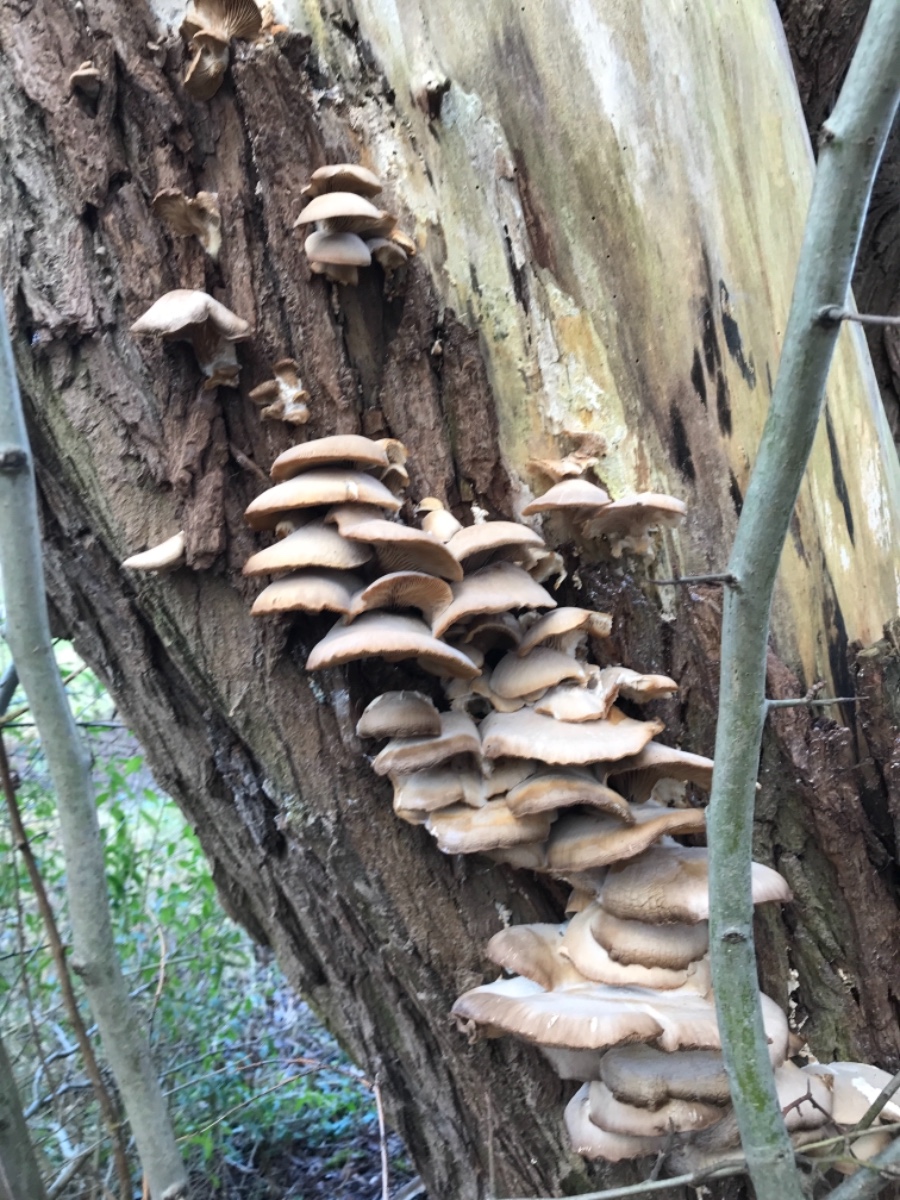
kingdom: Fungi
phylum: Basidiomycota
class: Agaricomycetes
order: Agaricales
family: Pleurotaceae
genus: Pleurotus
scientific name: Pleurotus ostreatus
